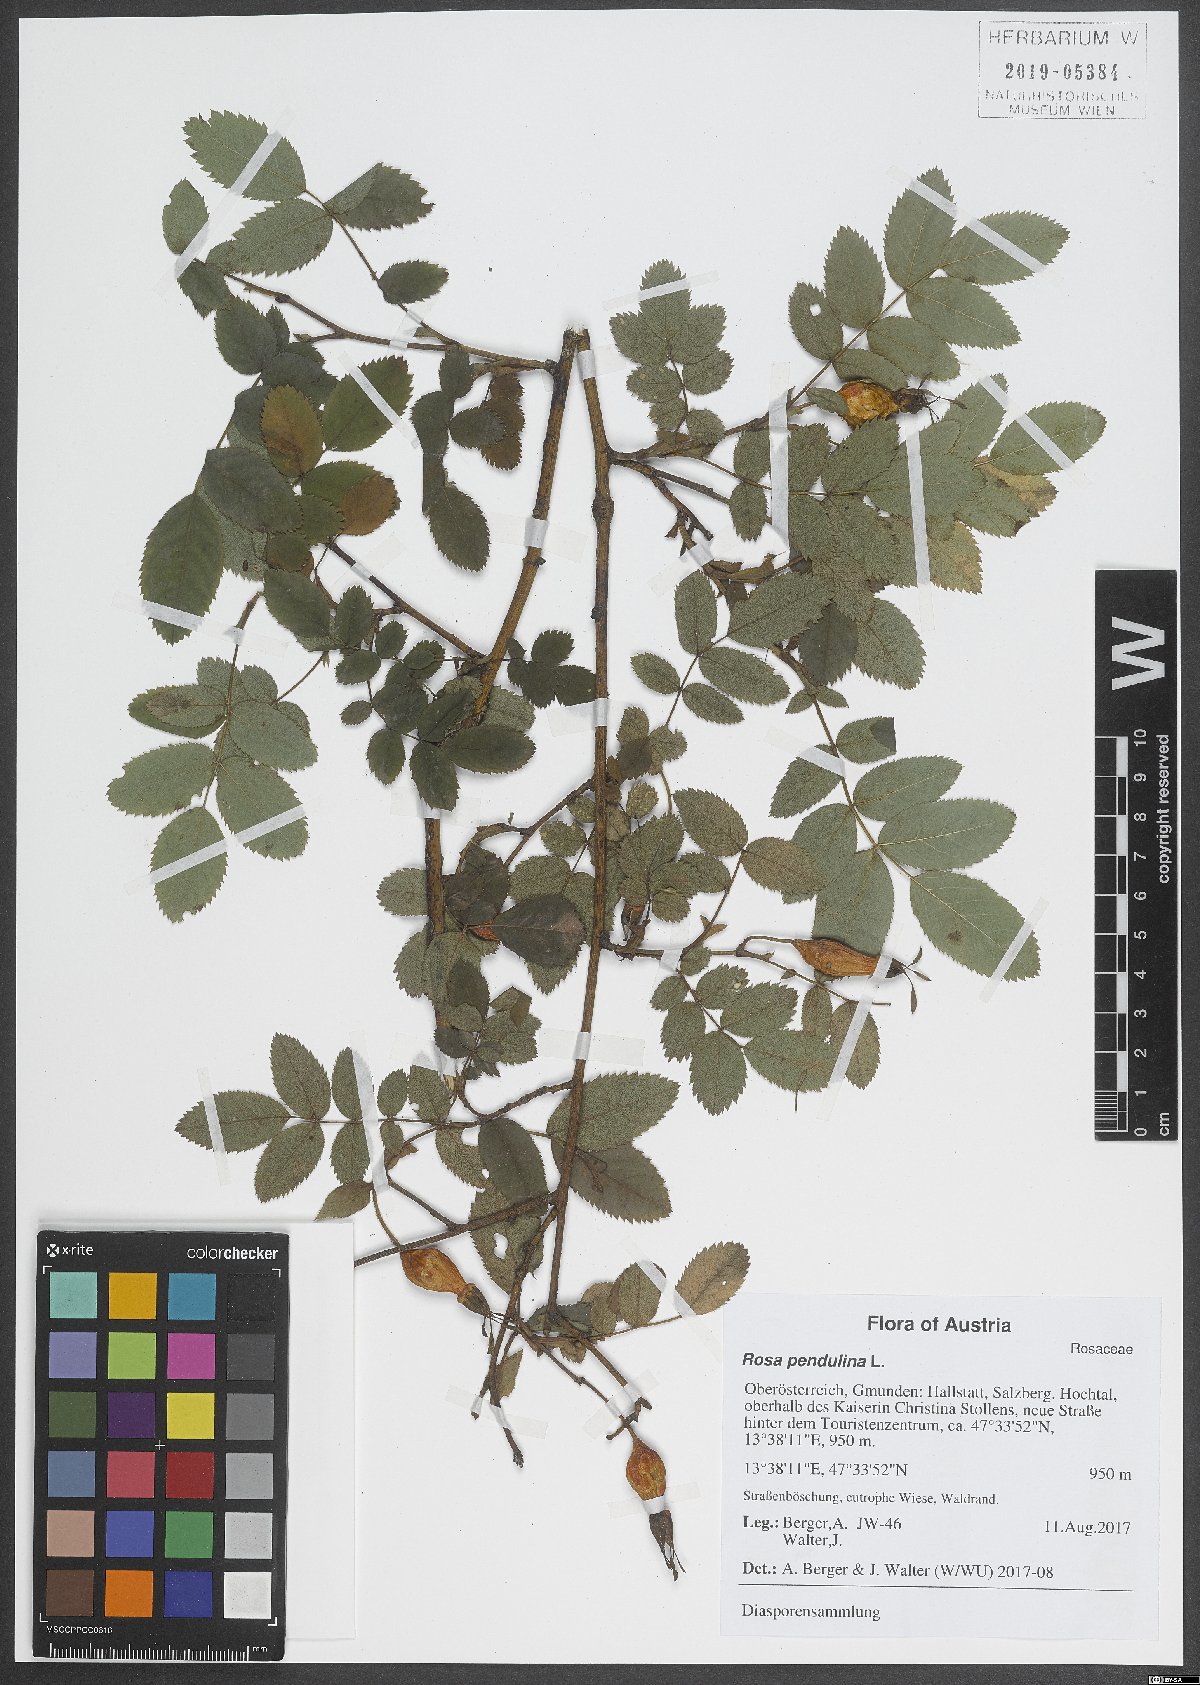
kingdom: Plantae
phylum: Tracheophyta
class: Magnoliopsida
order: Rosales
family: Rosaceae
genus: Rosa
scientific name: Rosa pendulina
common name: Alpine rose
